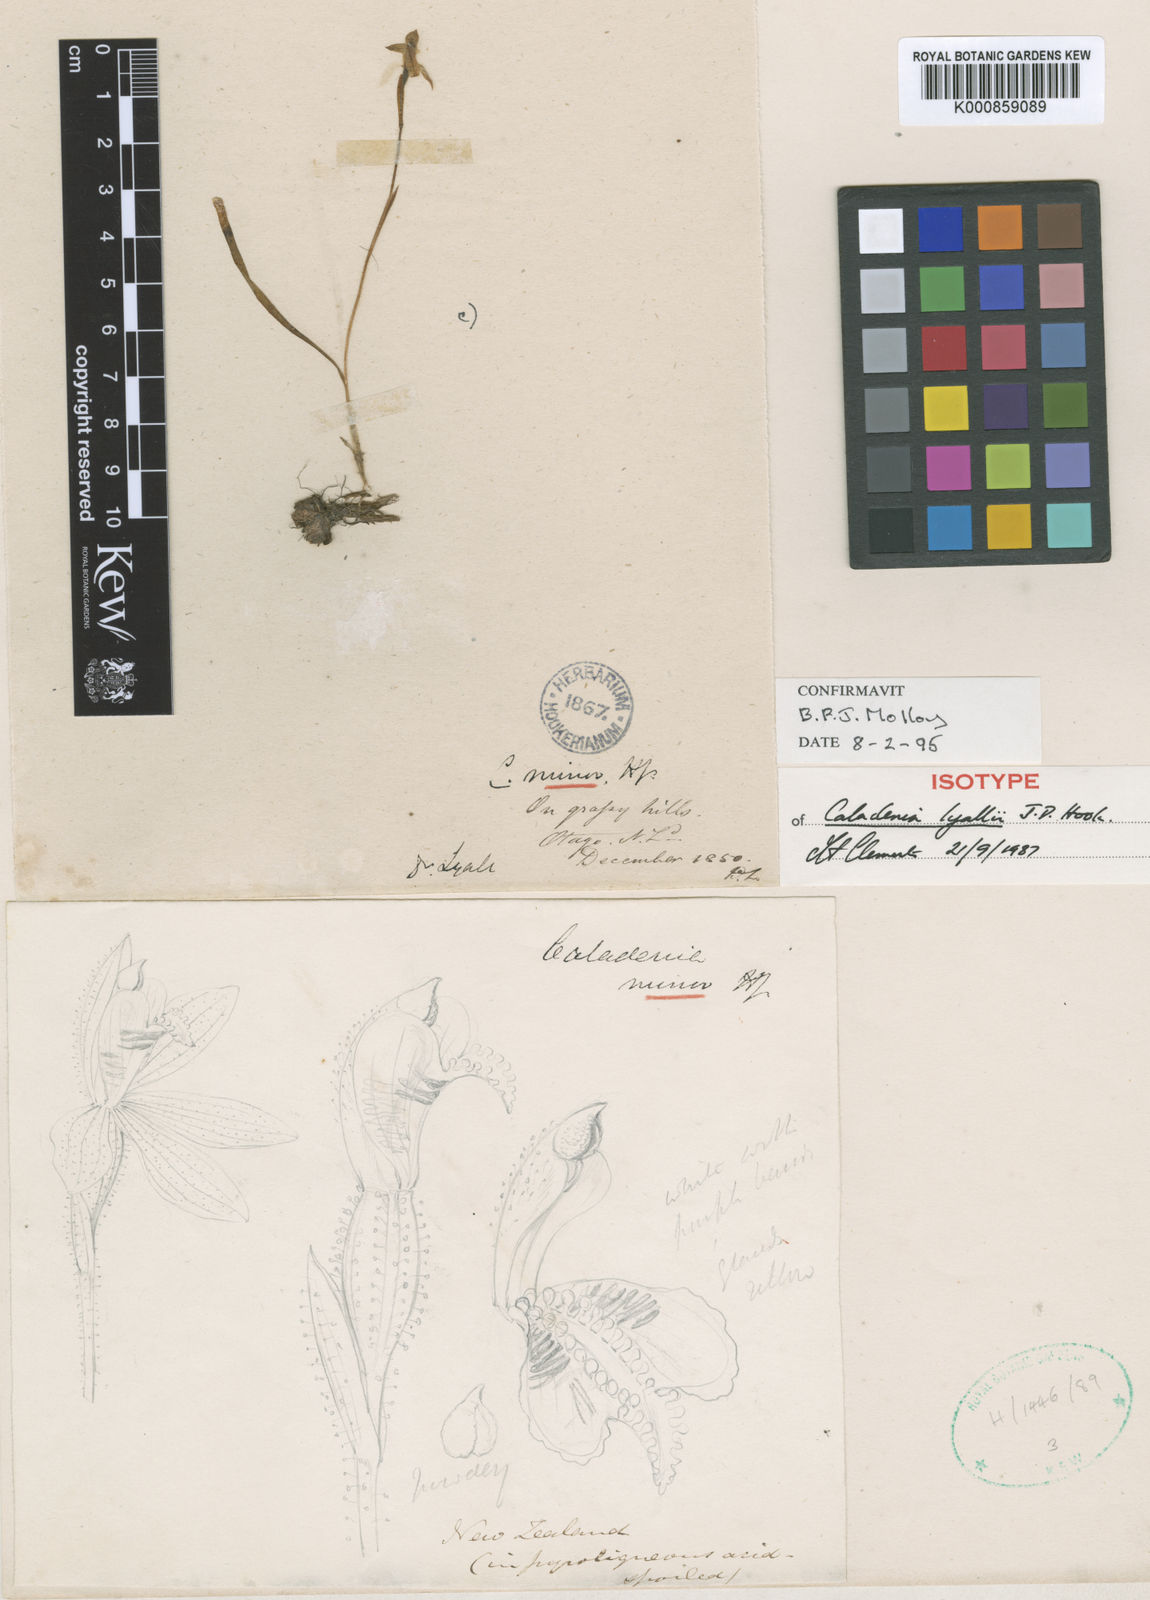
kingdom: Plantae
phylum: Tracheophyta
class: Liliopsida
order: Asparagales
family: Orchidaceae
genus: Caladenia
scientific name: Caladenia lyallii
